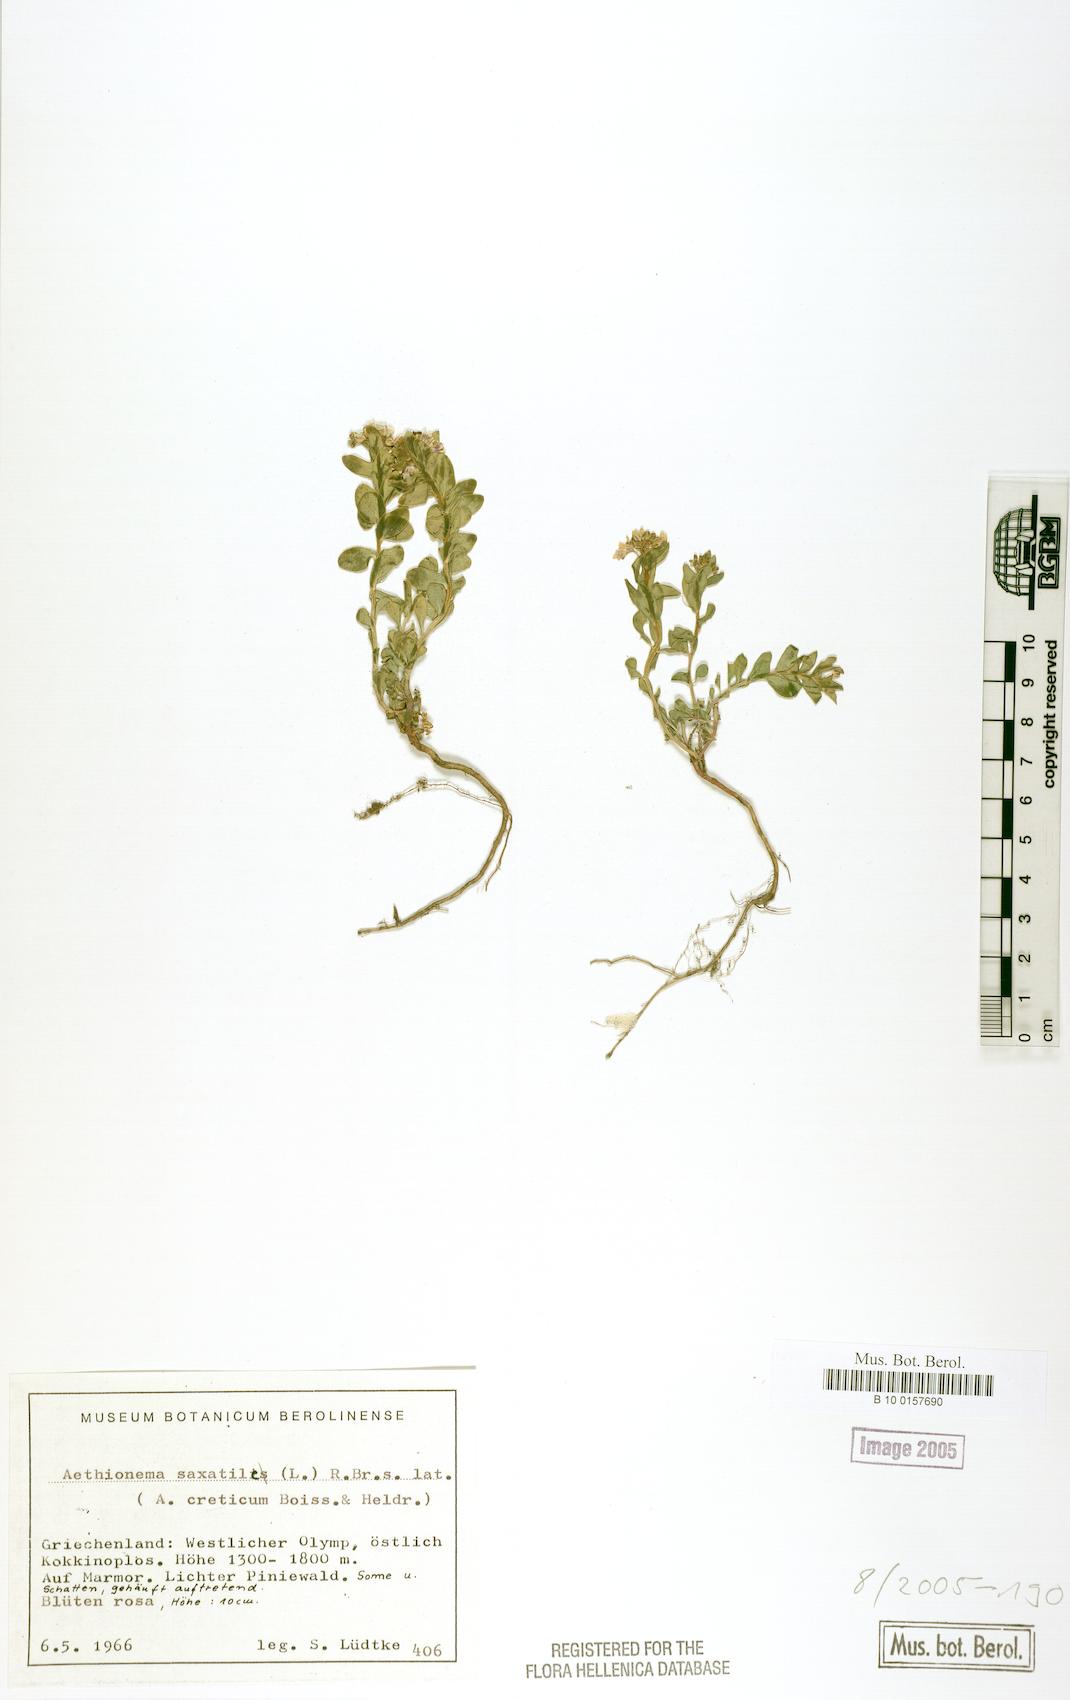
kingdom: Plantae
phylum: Tracheophyta
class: Magnoliopsida
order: Brassicales
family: Brassicaceae
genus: Aethionema
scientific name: Aethionema saxatile
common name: Burnt candytuft
